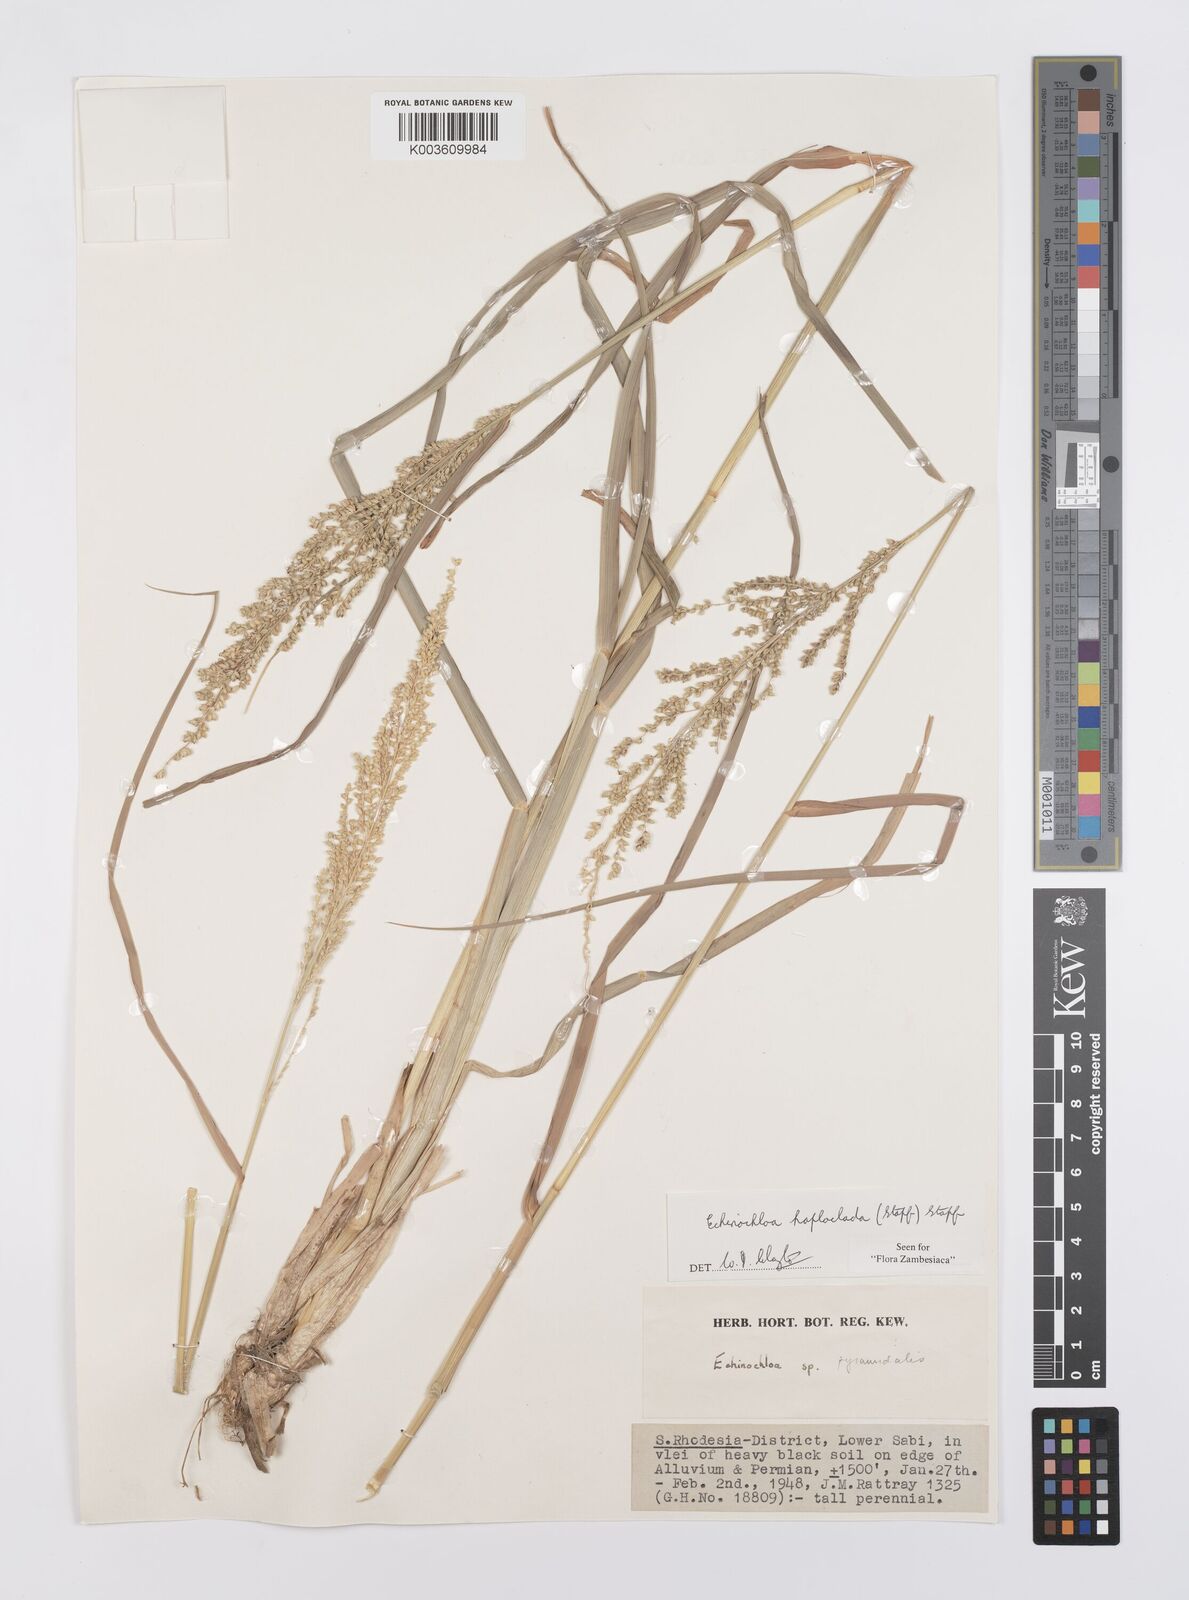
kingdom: Plantae
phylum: Tracheophyta
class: Liliopsida
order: Poales
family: Poaceae
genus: Echinochloa
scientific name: Echinochloa haploclada
